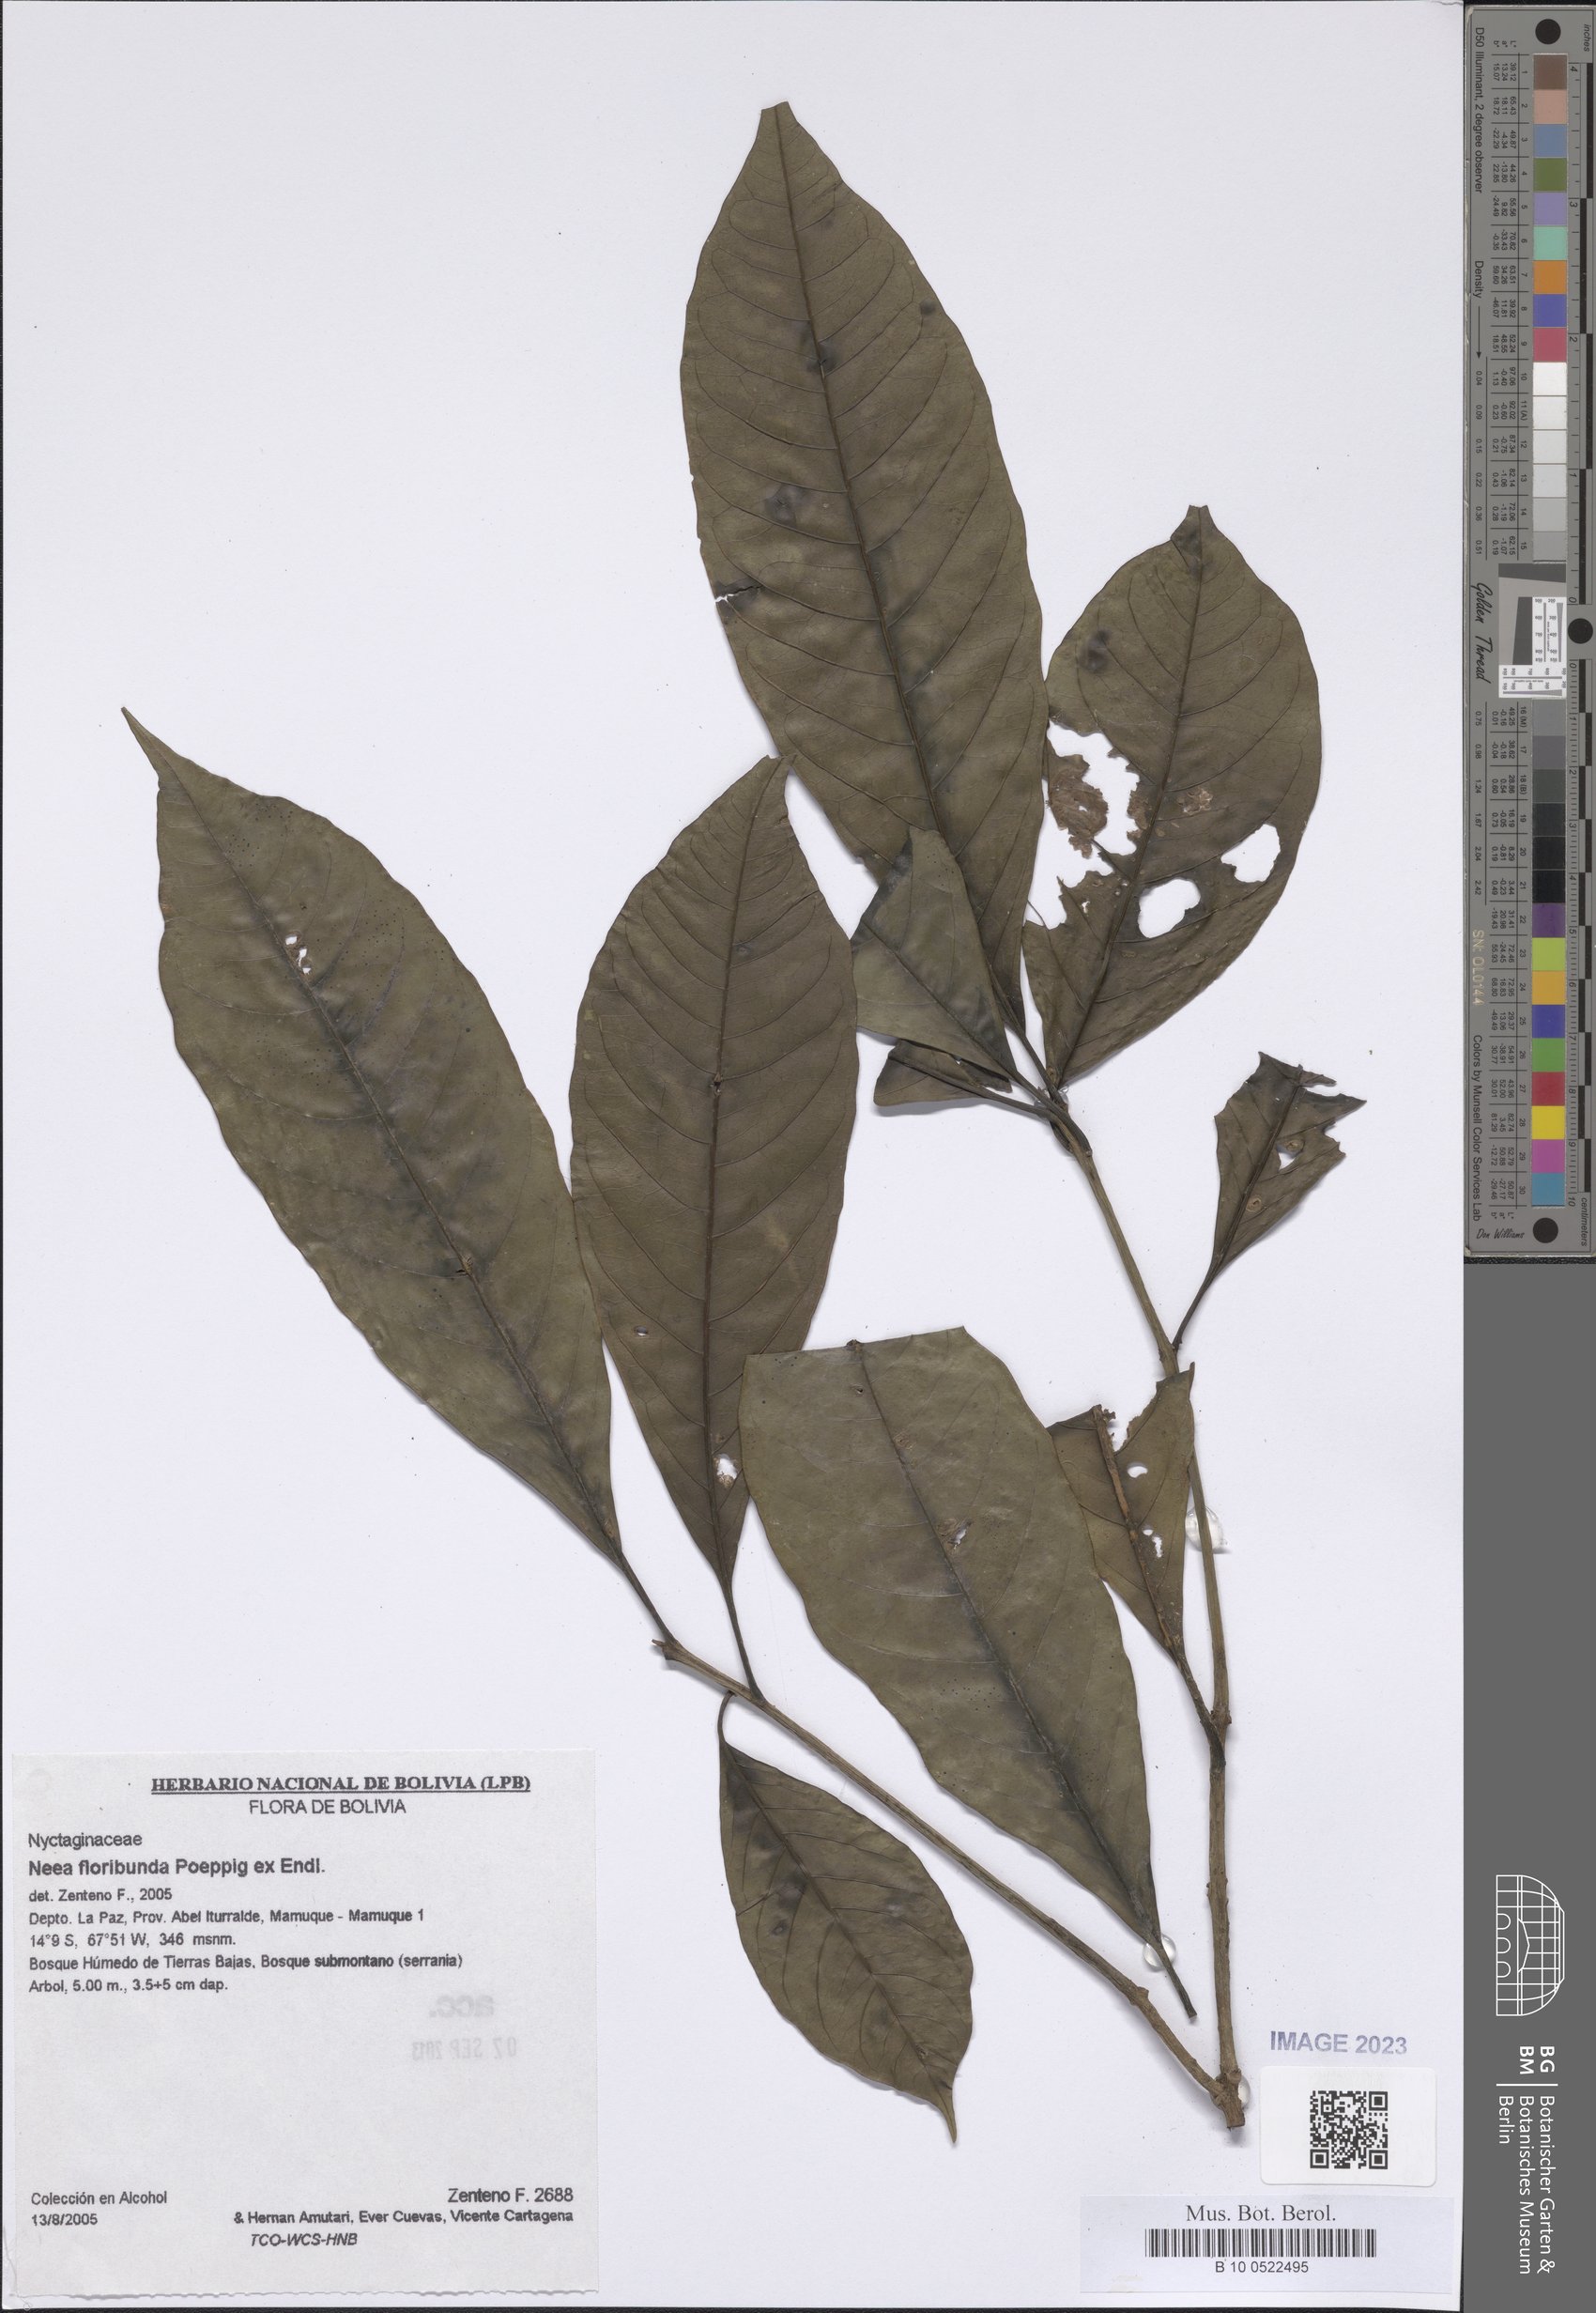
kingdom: Plantae
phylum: Tracheophyta
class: Magnoliopsida
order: Caryophyllales
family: Nyctaginaceae
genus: Neea
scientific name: Neea floribunda
